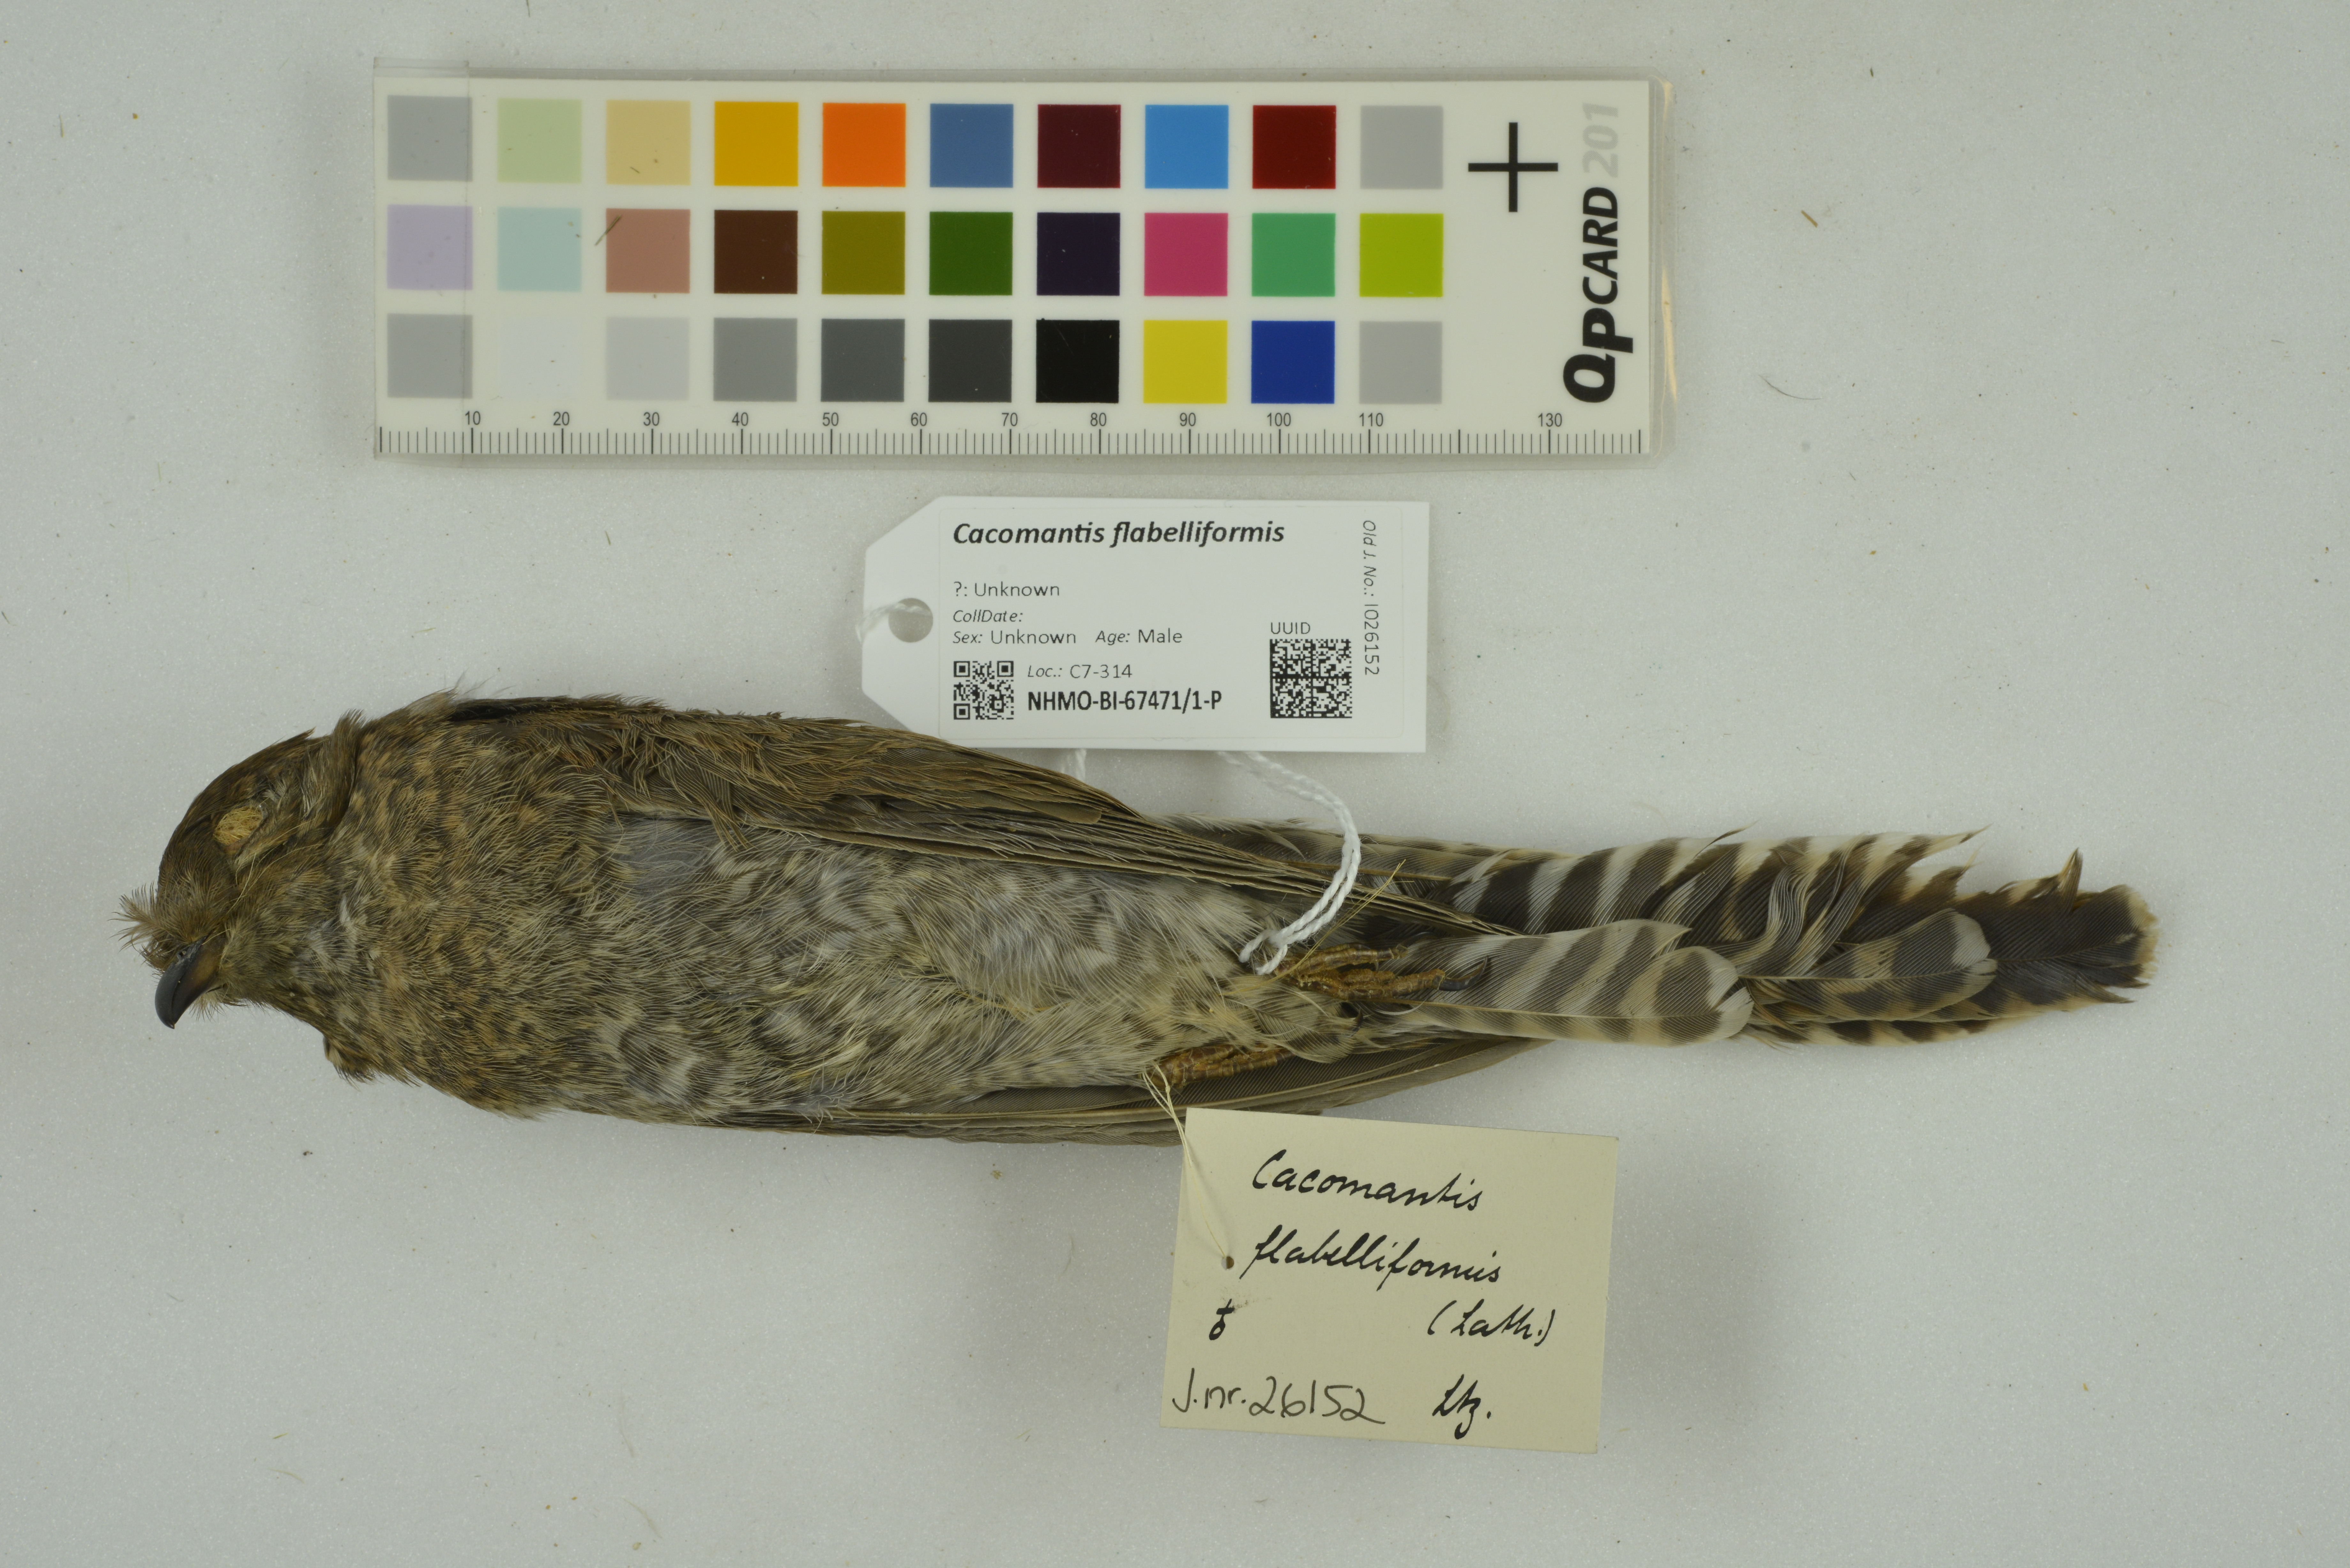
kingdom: Animalia
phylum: Chordata
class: Aves
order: Cuculiformes
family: Cuculidae
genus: Cacomantis
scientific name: Cacomantis flabelliformis
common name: Fan-tailed cuckoo
